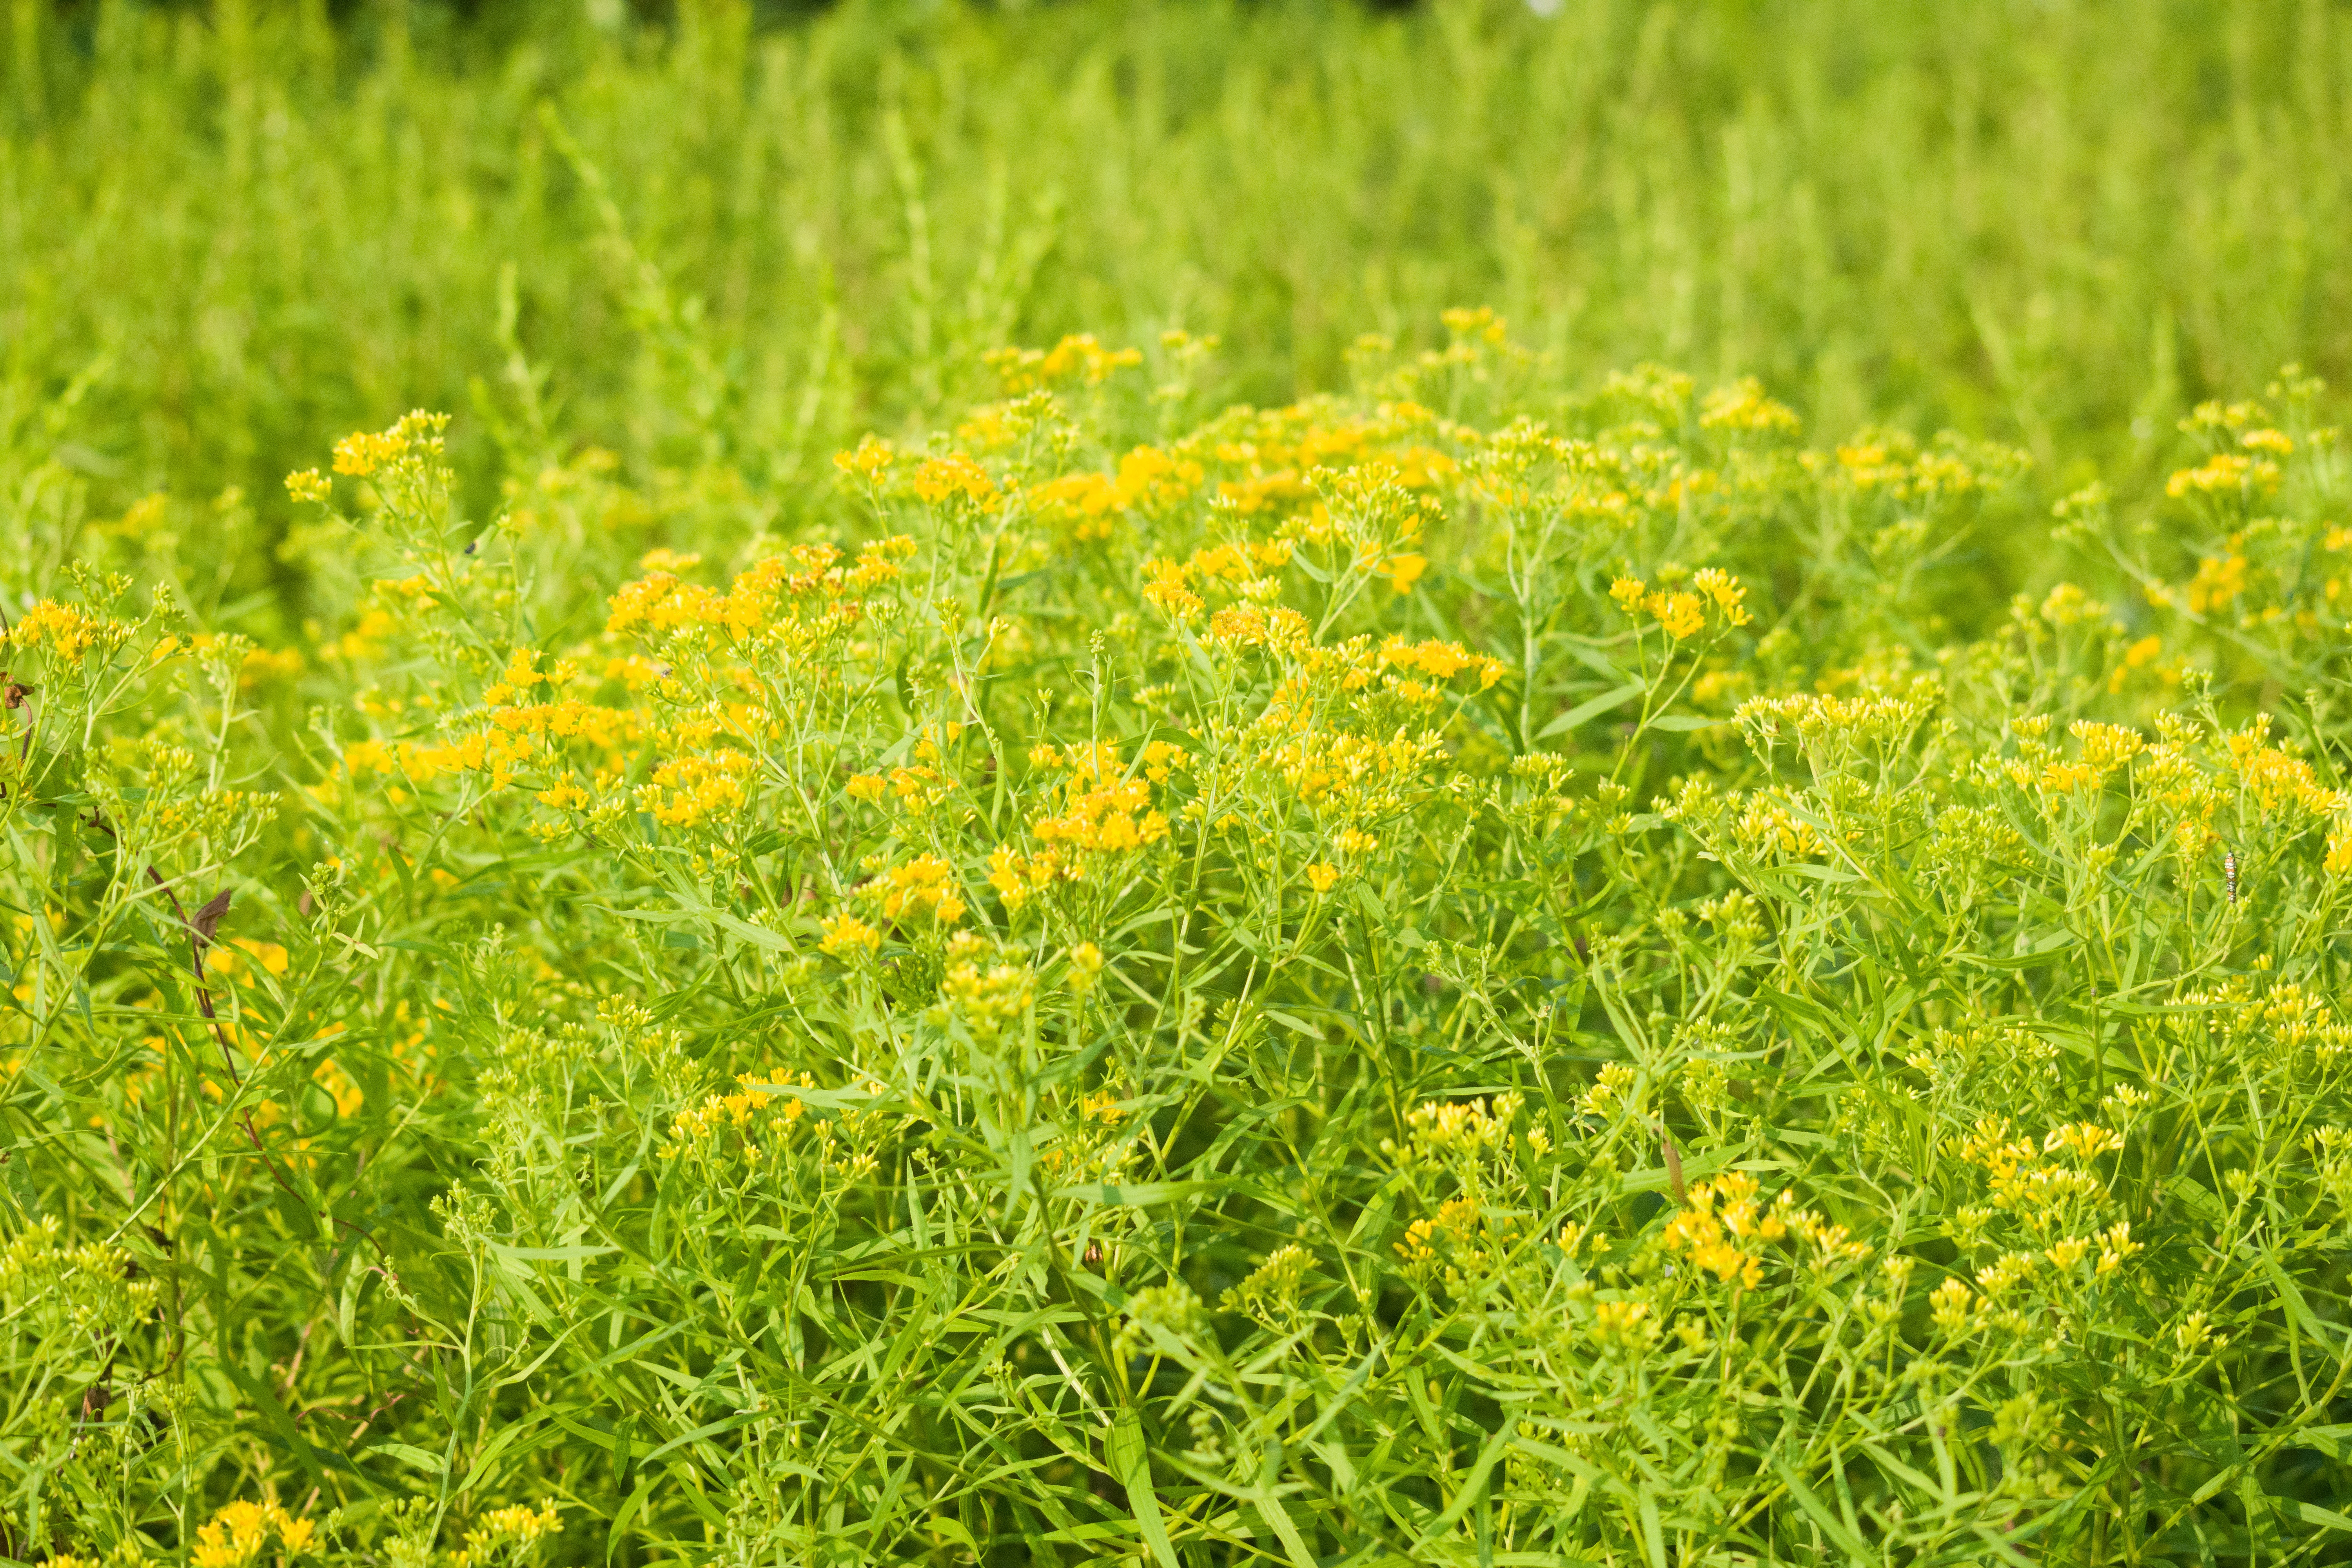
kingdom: Plantae
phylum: Tracheophyta
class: Magnoliopsida
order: Asterales
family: Asteraceae
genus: Euthamia
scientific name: Euthamia graminifolia
